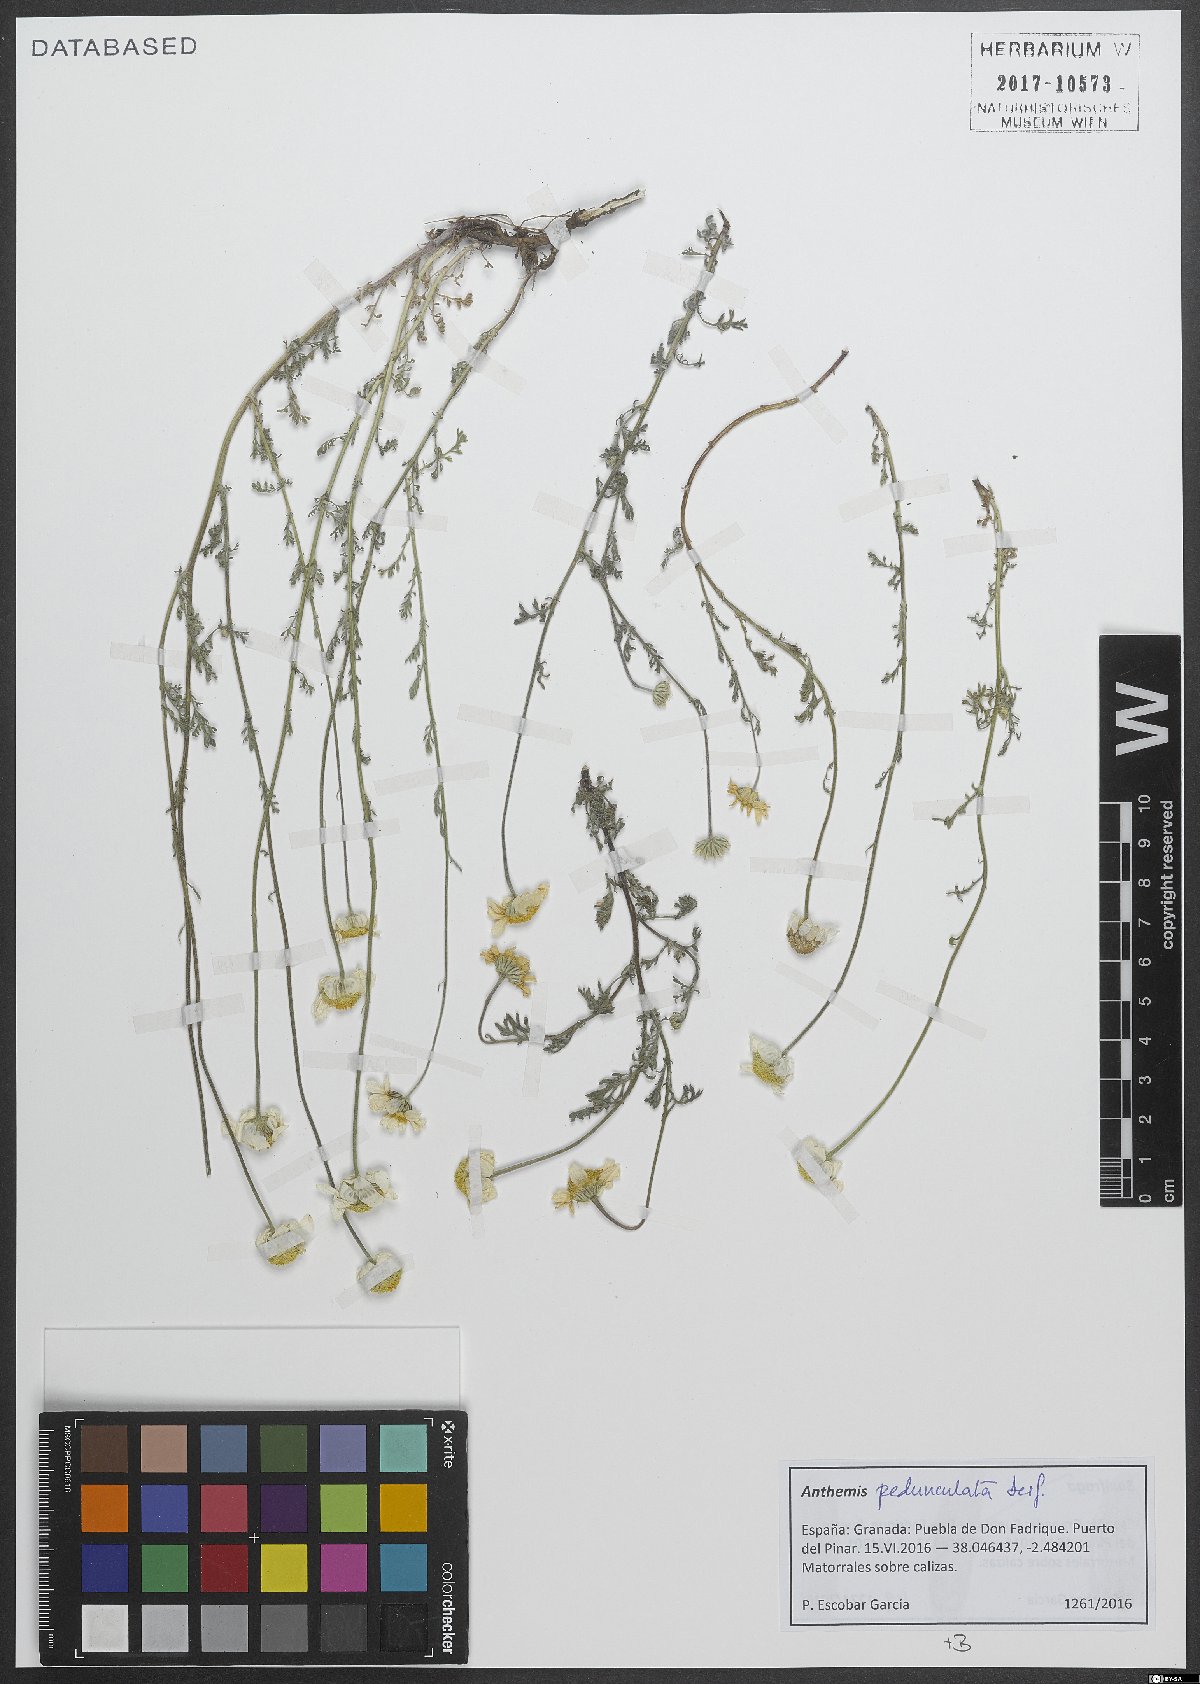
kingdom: Plantae
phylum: Tracheophyta
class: Magnoliopsida
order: Asterales
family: Asteraceae
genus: Anthemis
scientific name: Anthemis pedunculata
